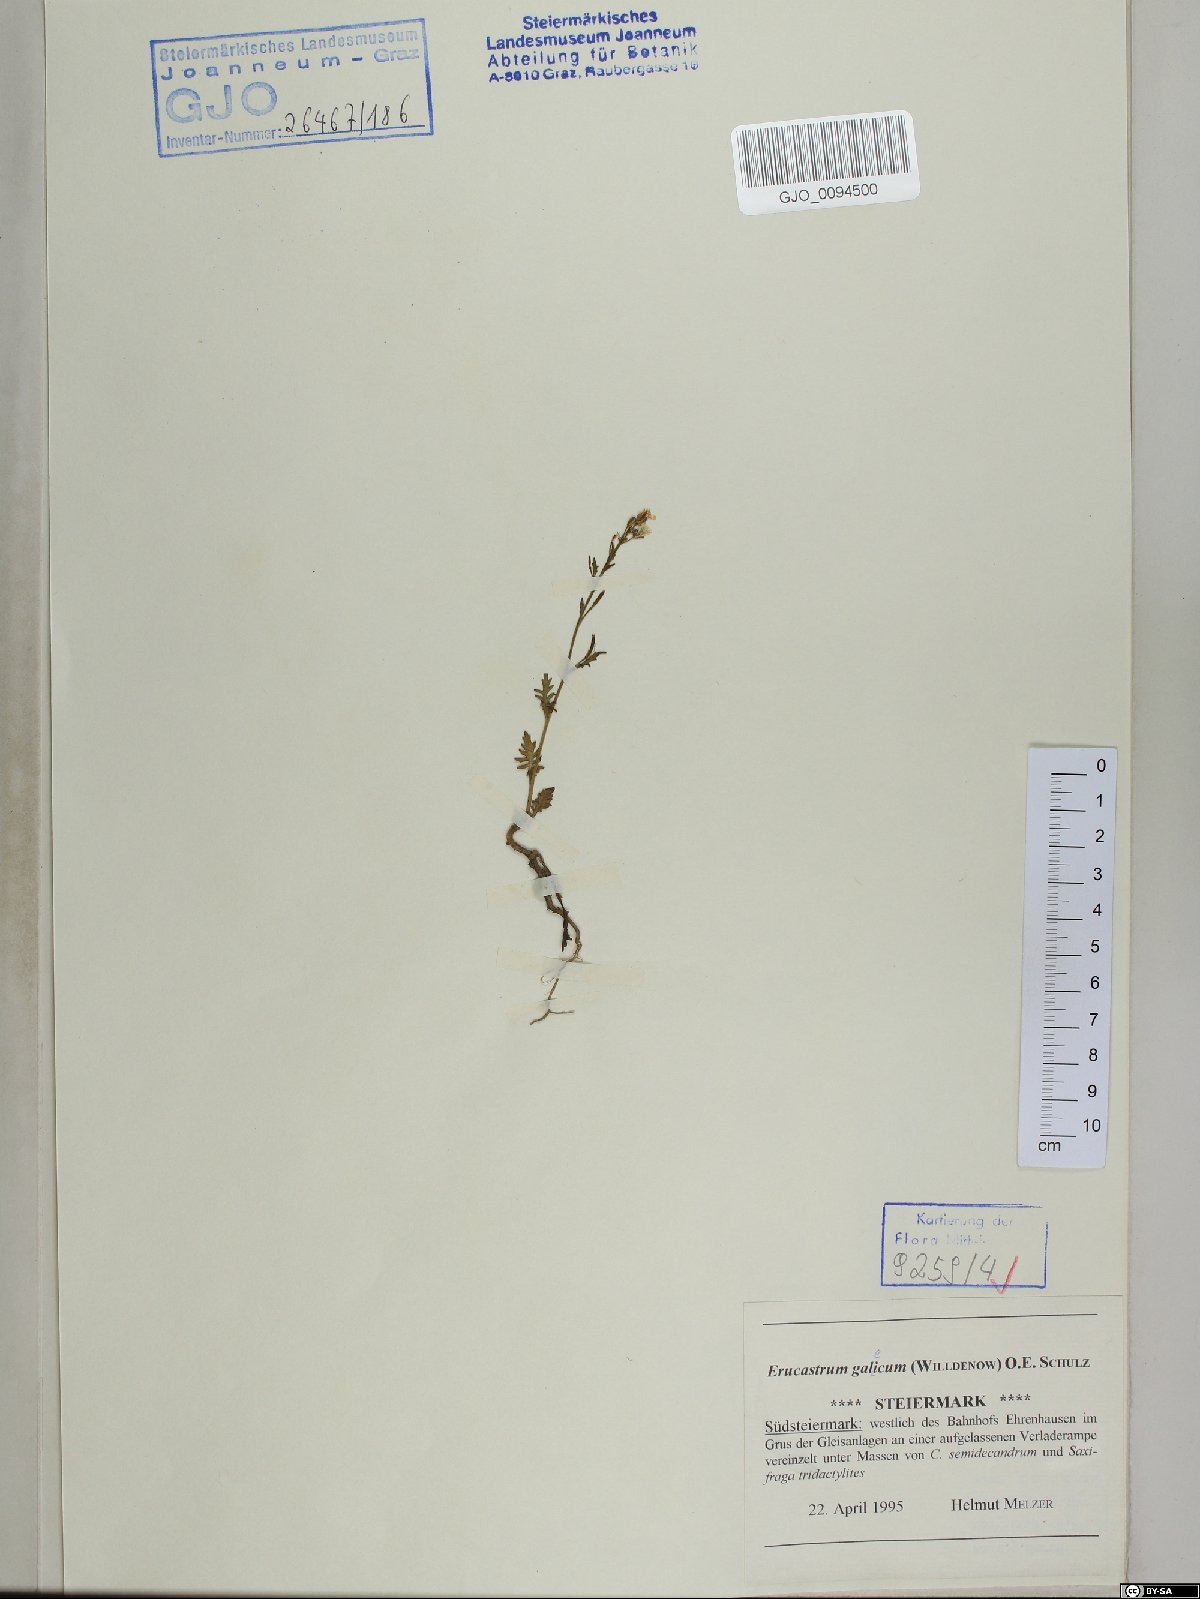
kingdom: Plantae
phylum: Tracheophyta
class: Magnoliopsida
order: Brassicales
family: Brassicaceae
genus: Erucastrum
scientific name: Erucastrum gallicum
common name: Hairy rocket
